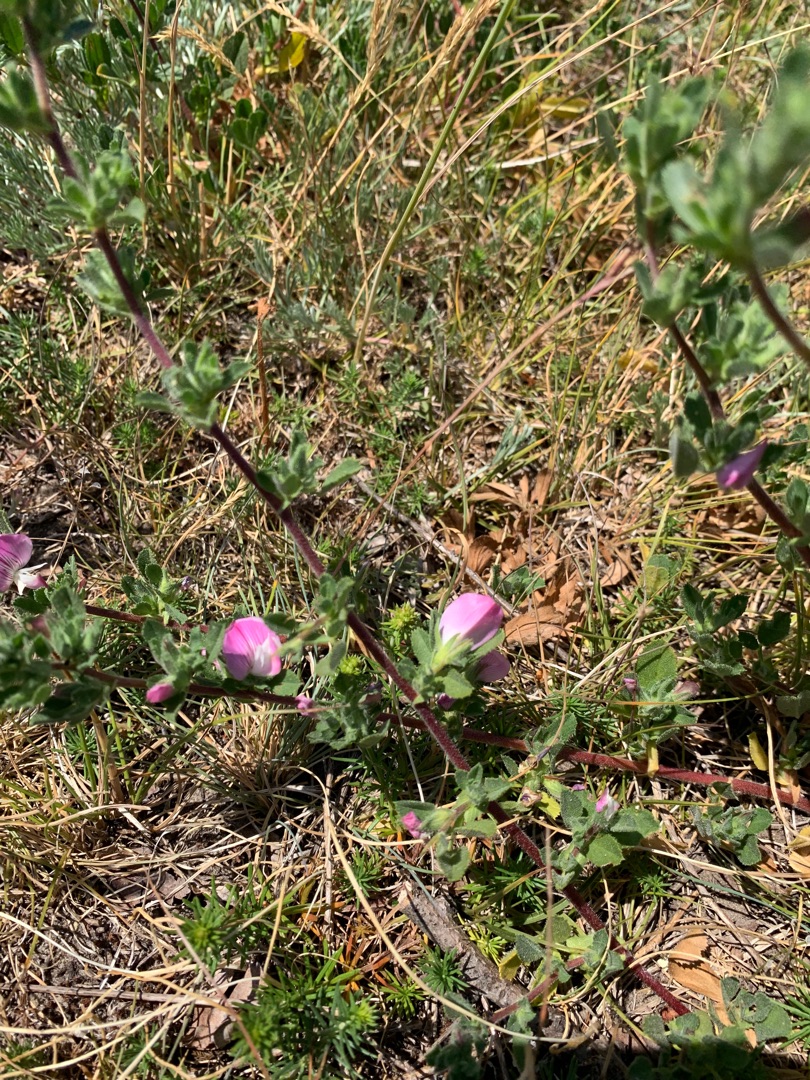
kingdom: Plantae
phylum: Tracheophyta
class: Magnoliopsida
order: Fabales
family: Fabaceae
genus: Ononis
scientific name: Ononis spinosa
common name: Mark-krageklo
